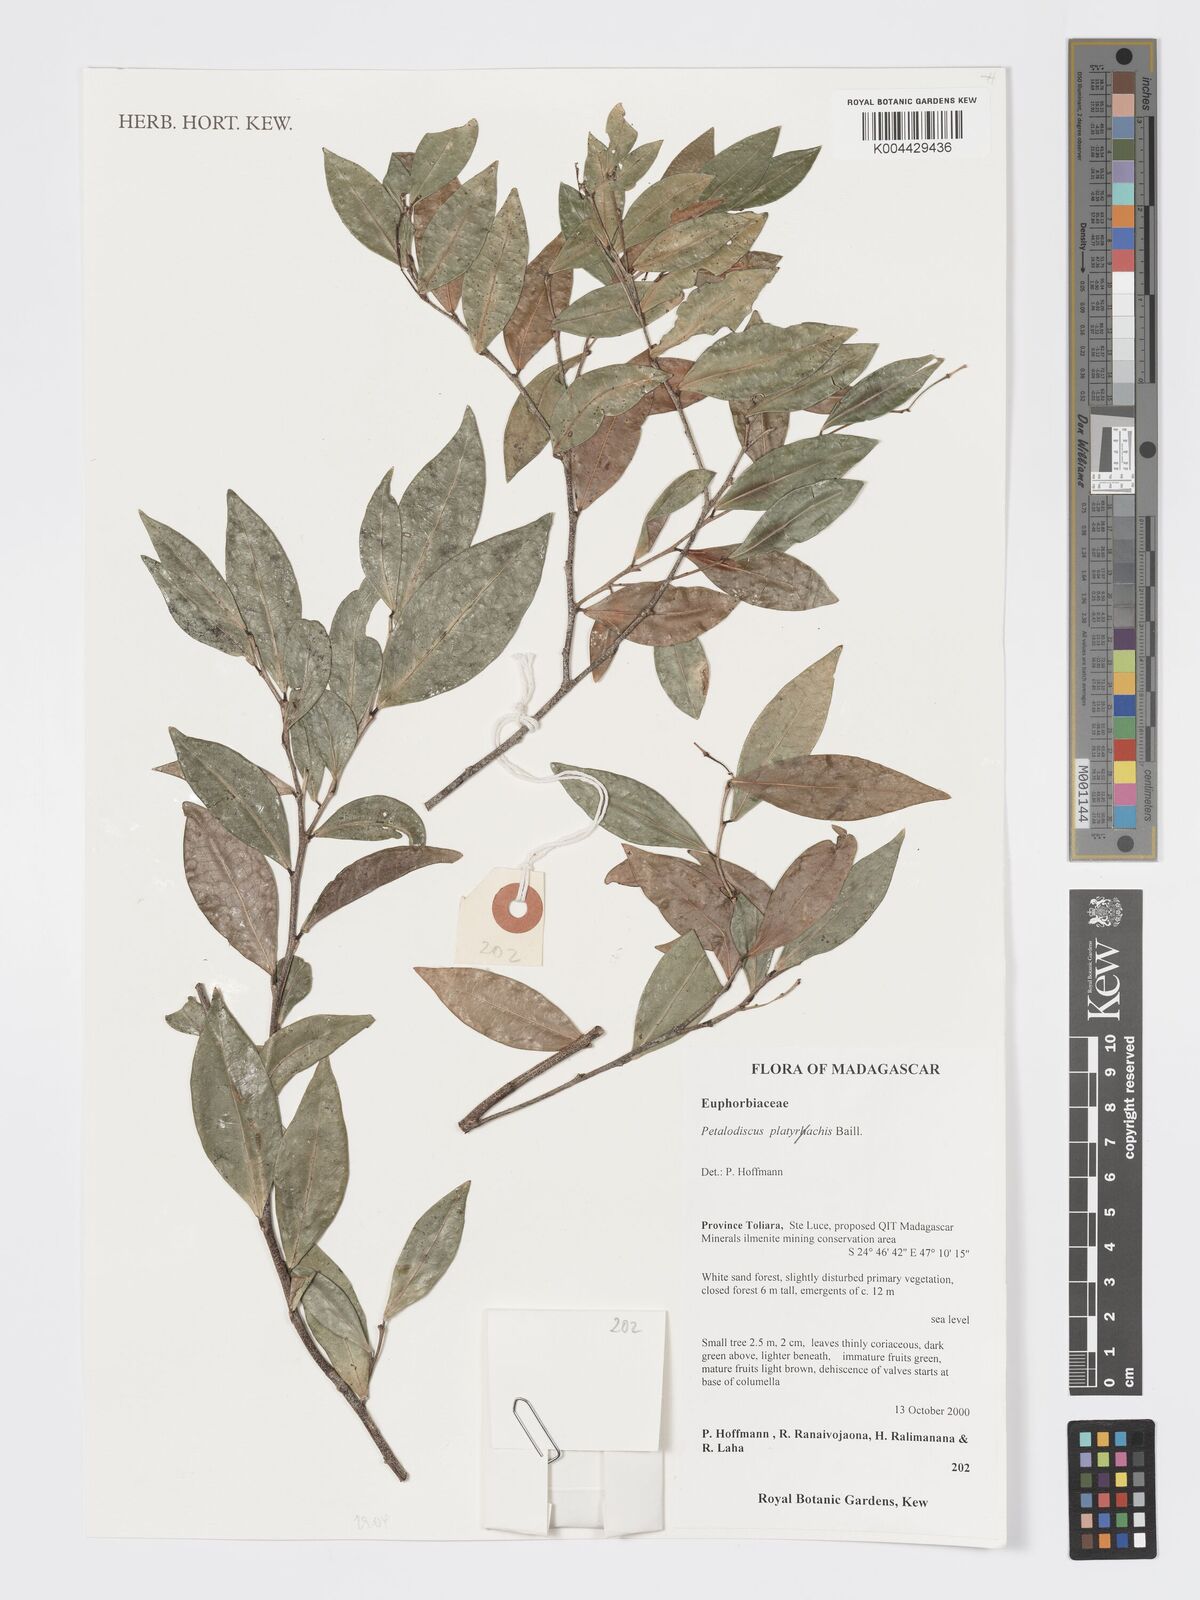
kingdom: Plantae
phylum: Tracheophyta
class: Magnoliopsida
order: Malpighiales
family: Phyllanthaceae
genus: Wielandia
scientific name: Wielandia platyrachis
